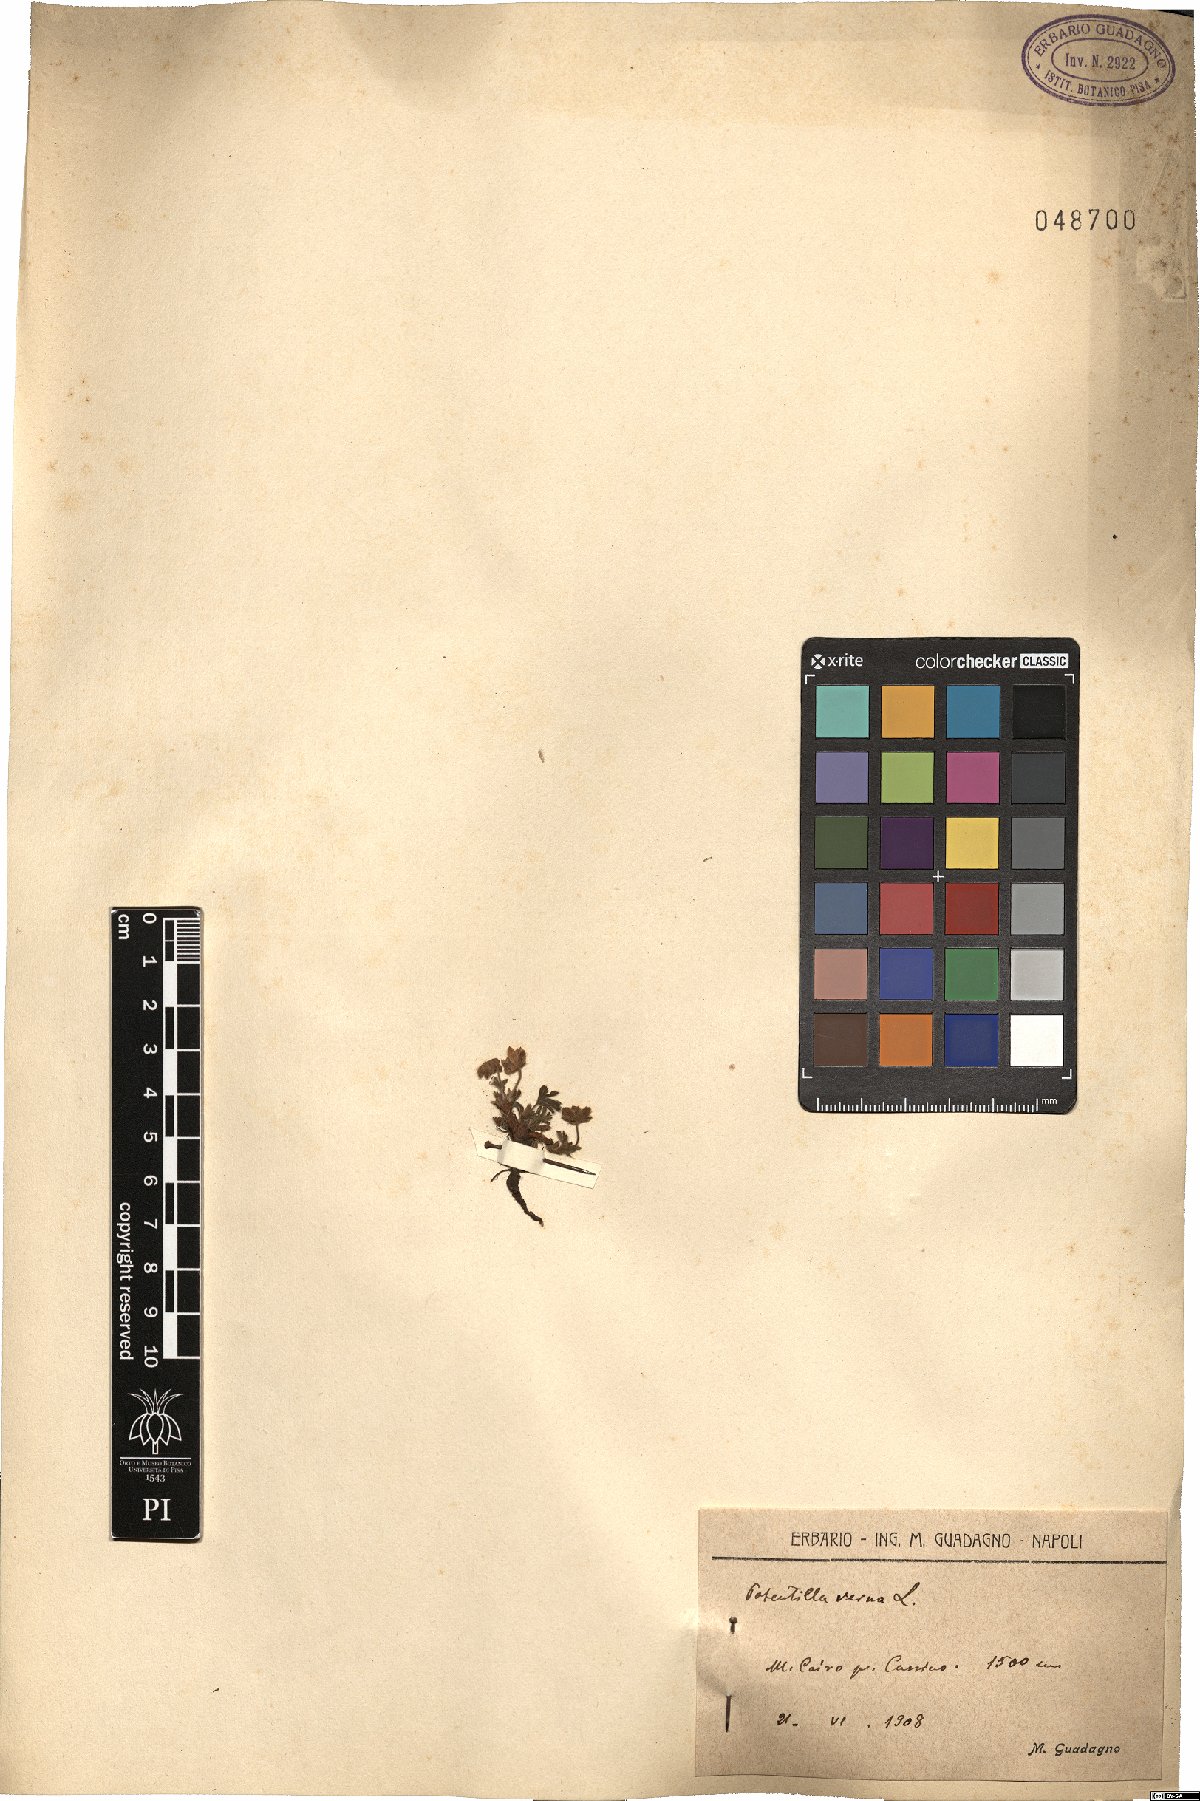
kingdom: Plantae
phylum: Tracheophyta
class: Magnoliopsida
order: Rosales
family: Rosaceae
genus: Potentilla
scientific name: Potentilla verna
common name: Spring cinquefoil
